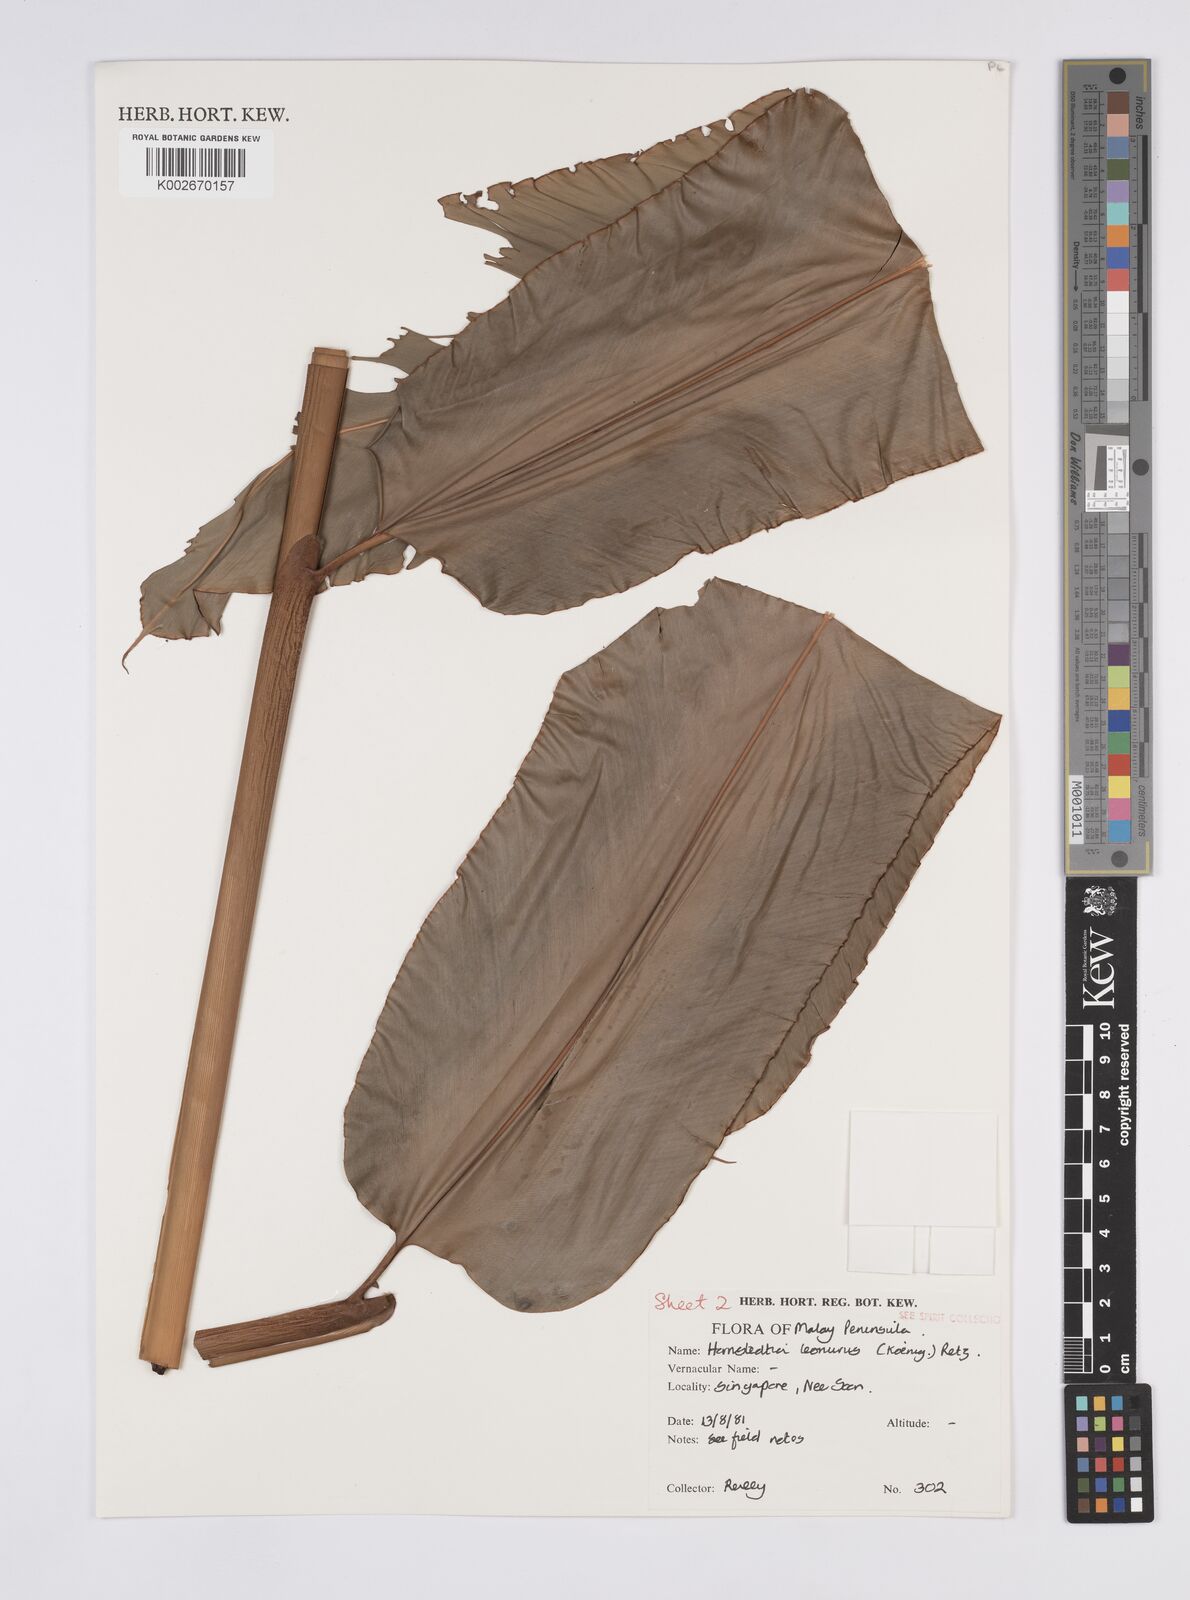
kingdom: Plantae
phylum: Tracheophyta
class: Liliopsida
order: Zingiberales
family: Zingiberaceae
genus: Hornstedtia
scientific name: Hornstedtia leonurus
